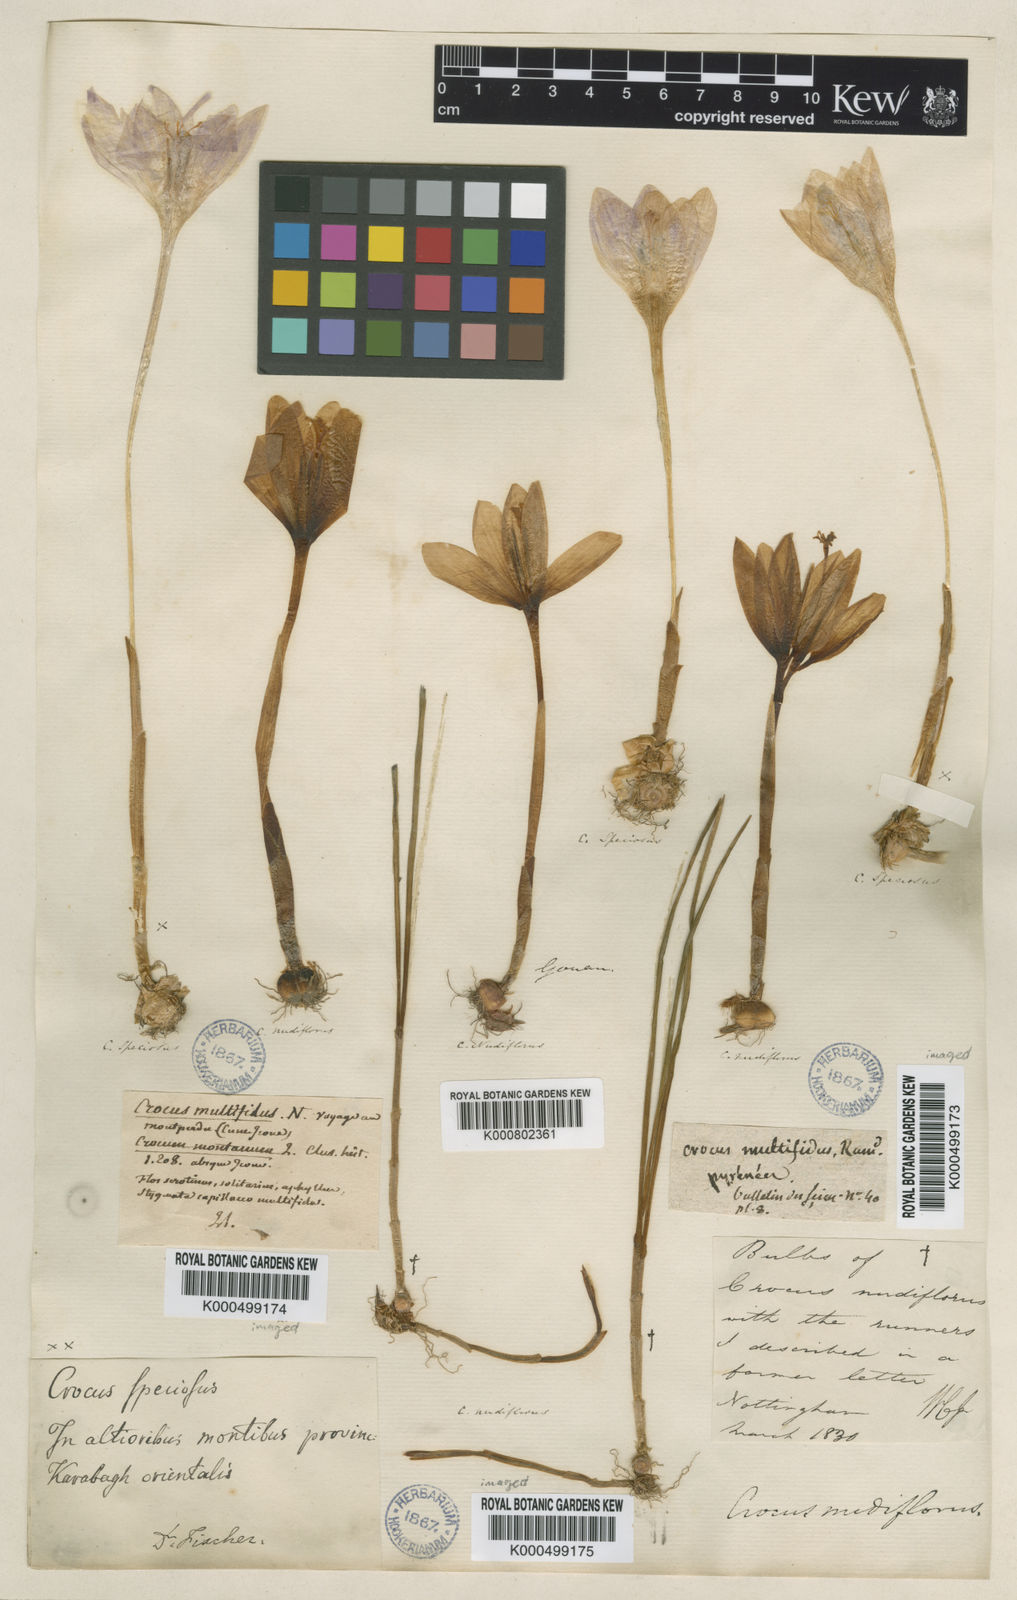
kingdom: Plantae
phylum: Tracheophyta
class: Liliopsida
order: Asparagales
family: Iridaceae
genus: Crocus
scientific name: Crocus salzmannii
